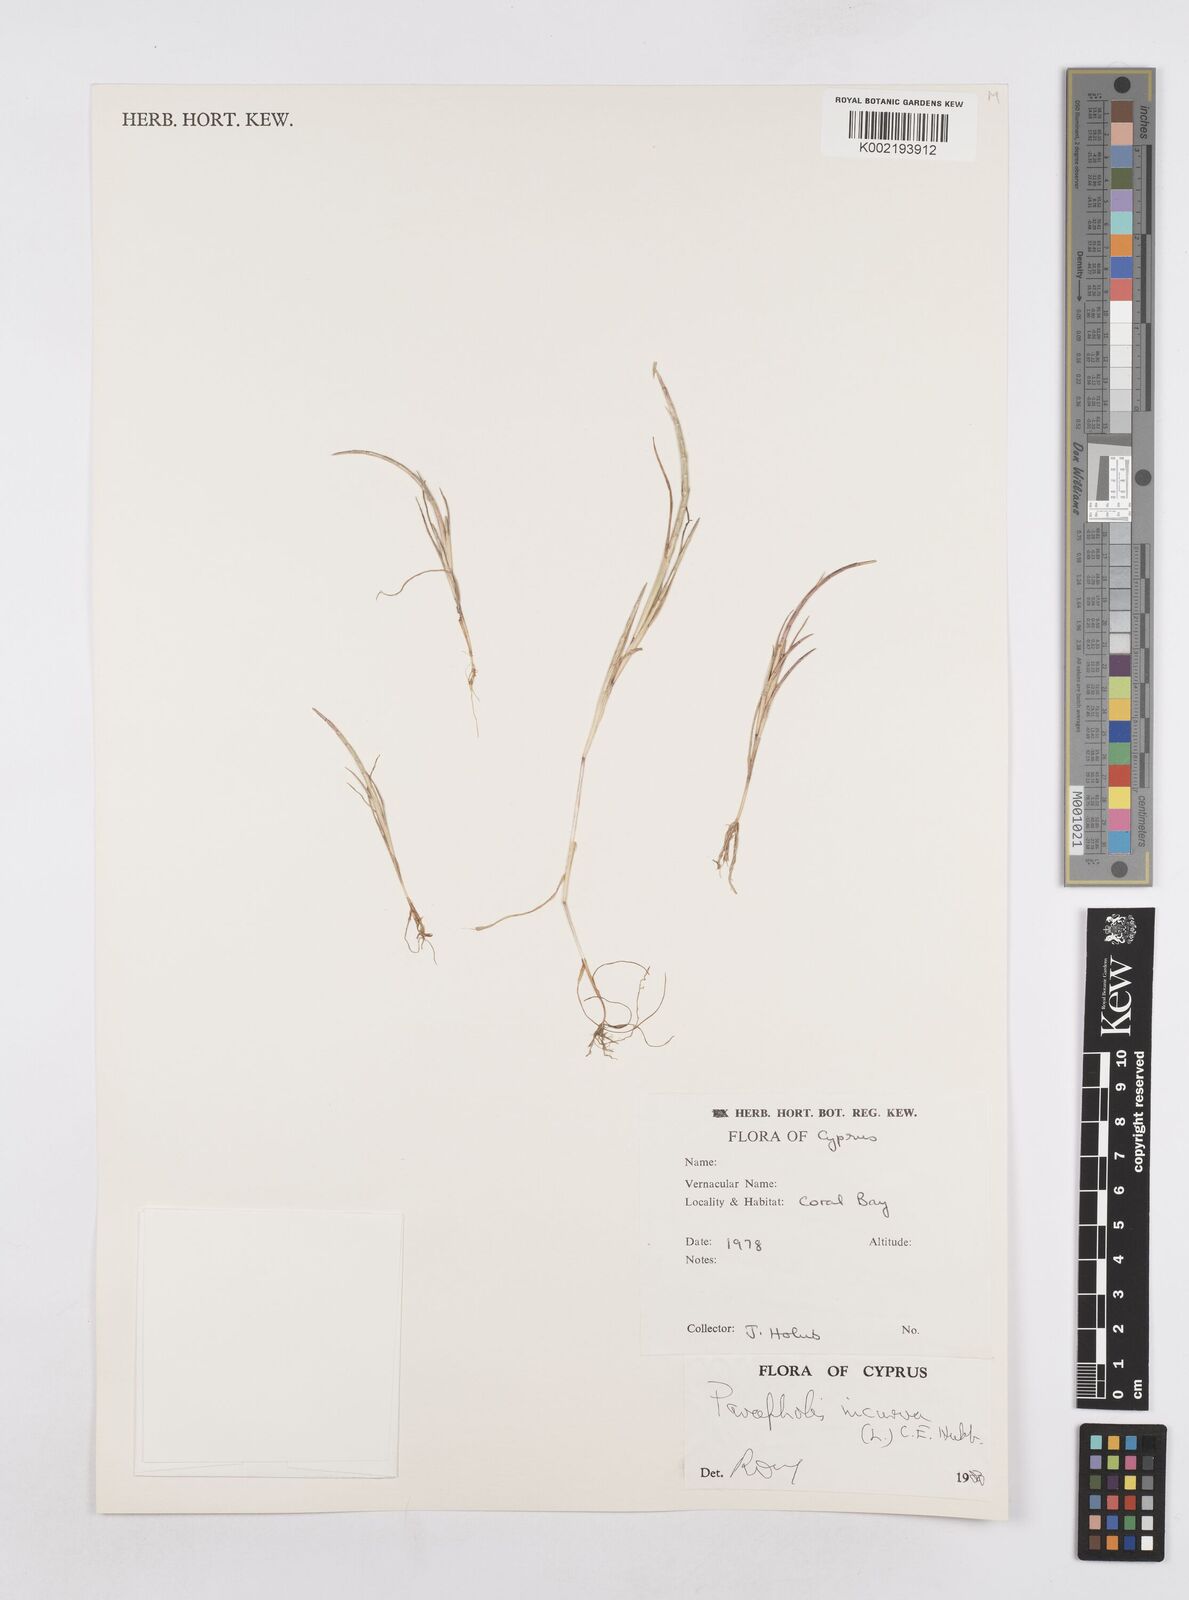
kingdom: Plantae
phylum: Tracheophyta
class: Liliopsida
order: Poales
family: Poaceae
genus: Parapholis
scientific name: Parapholis incurva
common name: Curved sicklegrass
